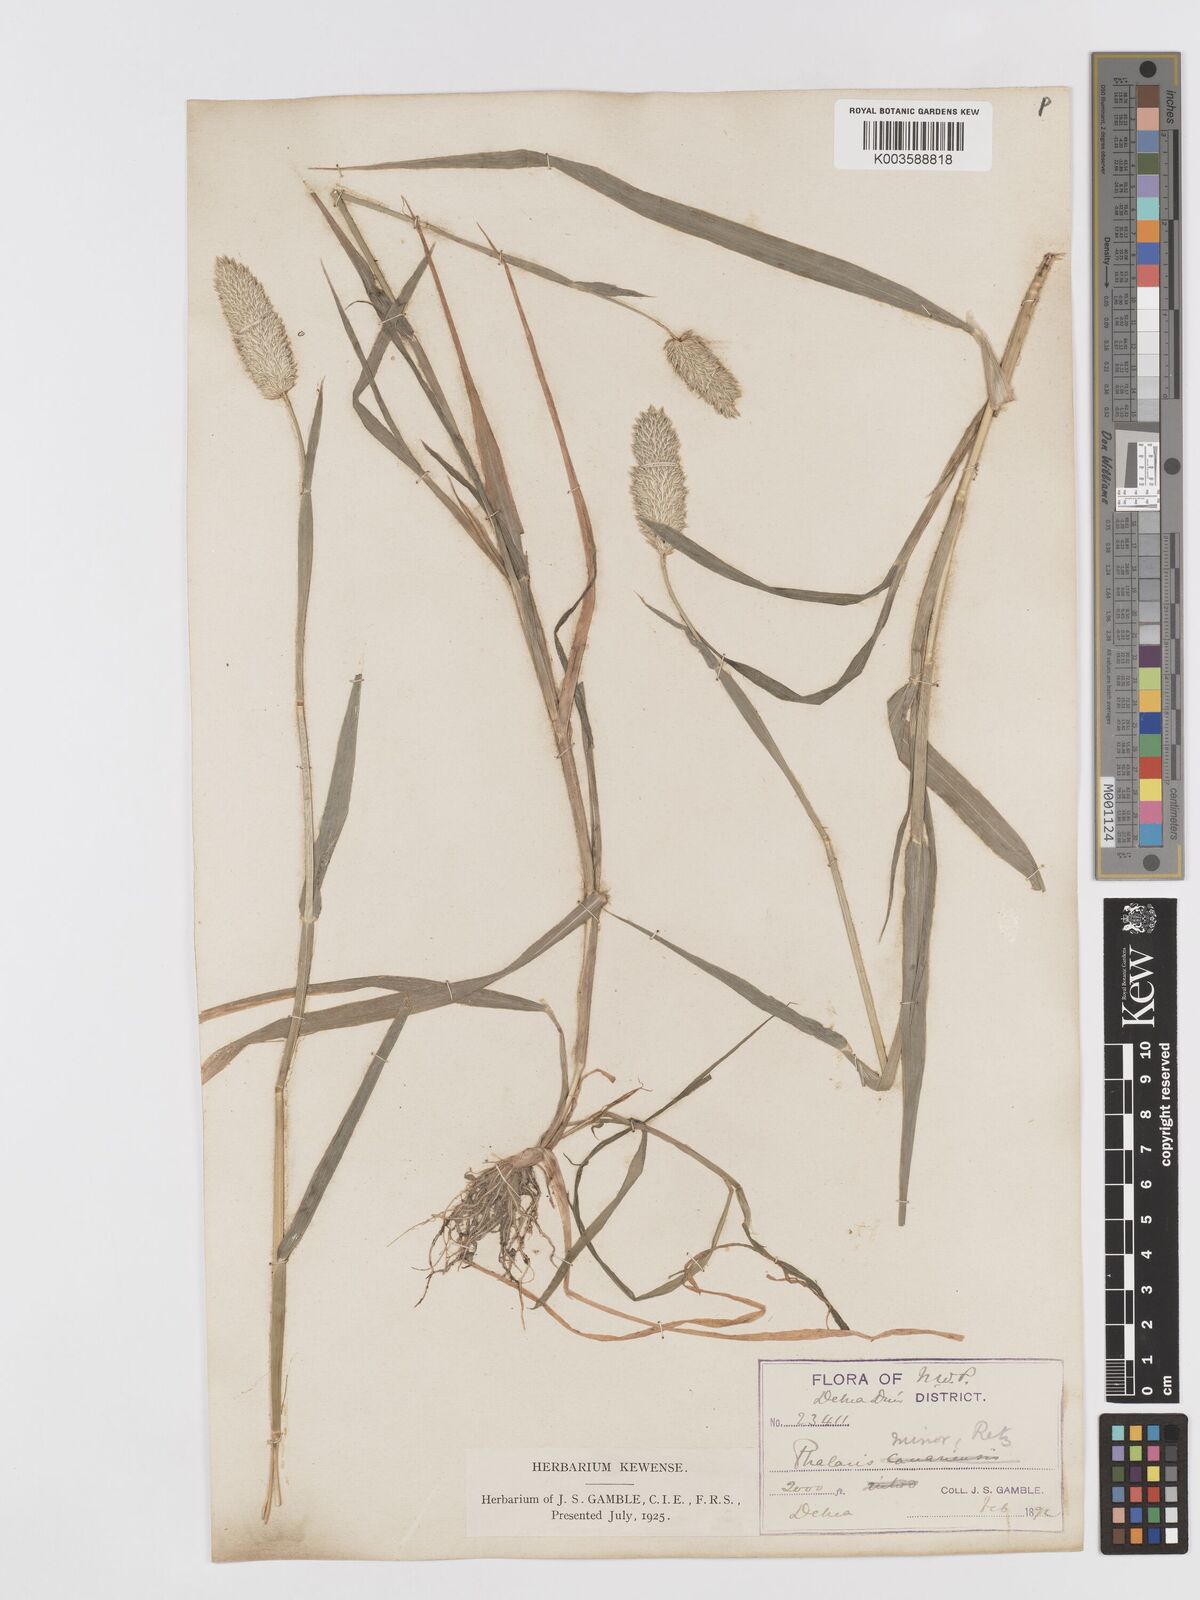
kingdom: Plantae
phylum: Tracheophyta
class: Liliopsida
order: Poales
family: Poaceae
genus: Phalaris
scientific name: Phalaris minor
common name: Littleseed canarygrass
